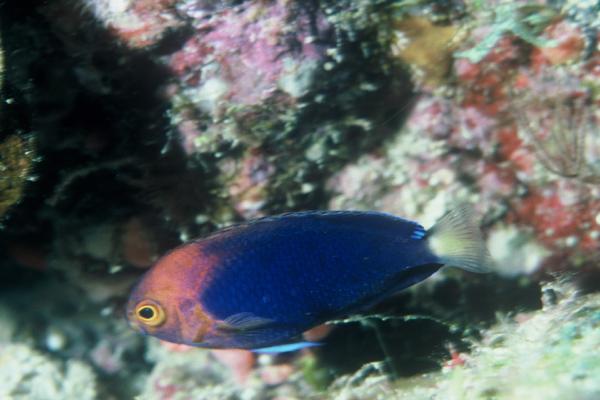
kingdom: Animalia
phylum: Chordata
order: Perciformes
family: Pomacanthidae
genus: Centropyge
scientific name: Centropyge fisheri
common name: Whitetail angelfish
